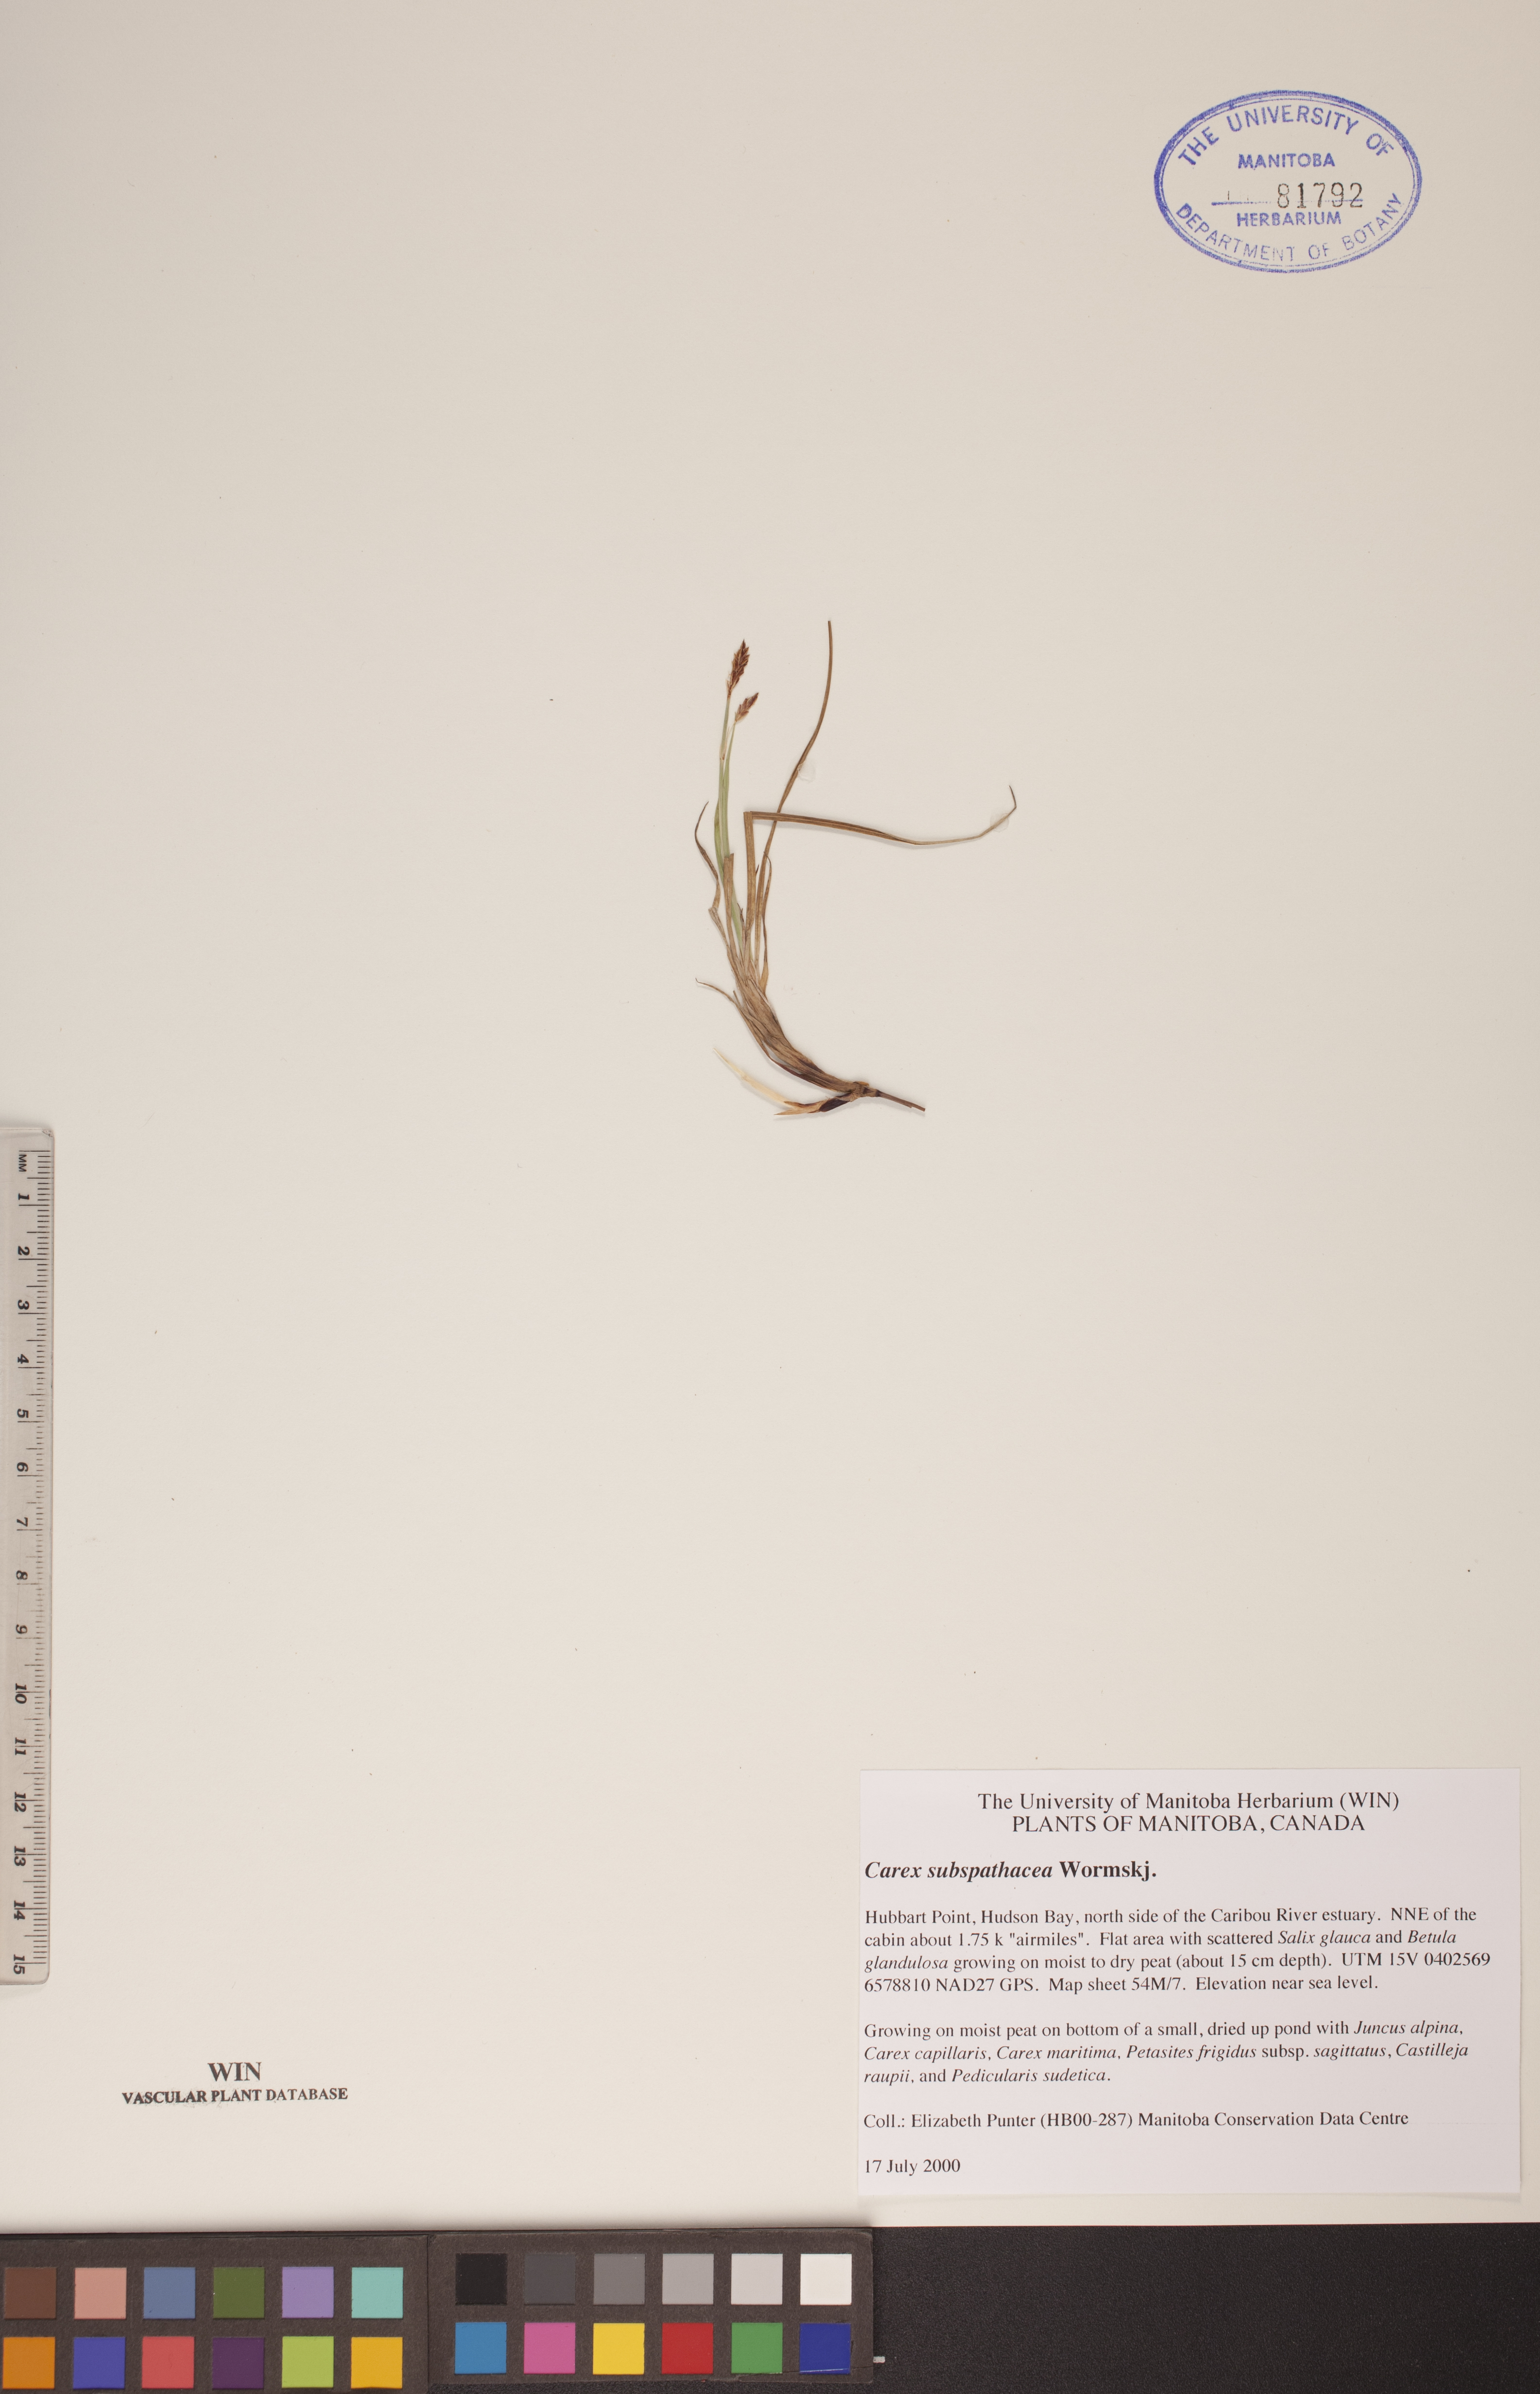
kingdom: Plantae
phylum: Tracheophyta
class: Liliopsida
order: Poales
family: Cyperaceae
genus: Carex
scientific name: Carex subspathacea
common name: Hoppner's sedge
